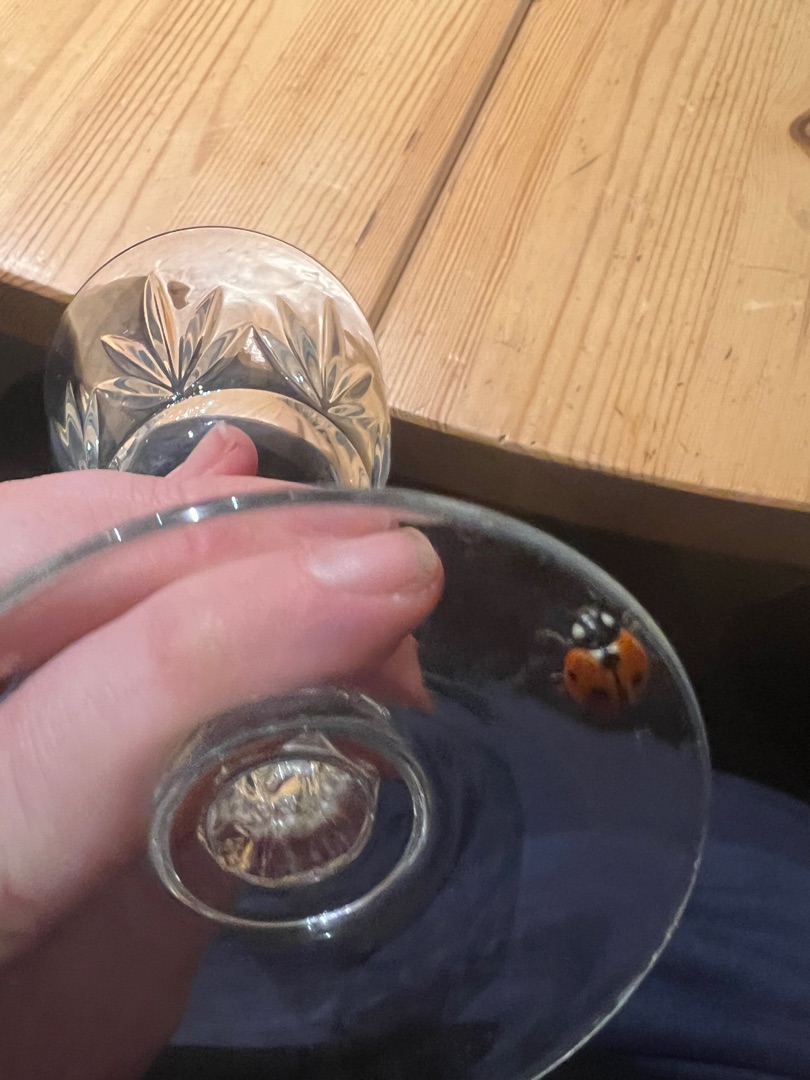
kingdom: Animalia
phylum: Arthropoda
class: Insecta
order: Coleoptera
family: Coccinellidae
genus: Coccinella
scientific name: Coccinella septempunctata
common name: Syvplettet mariehøne
